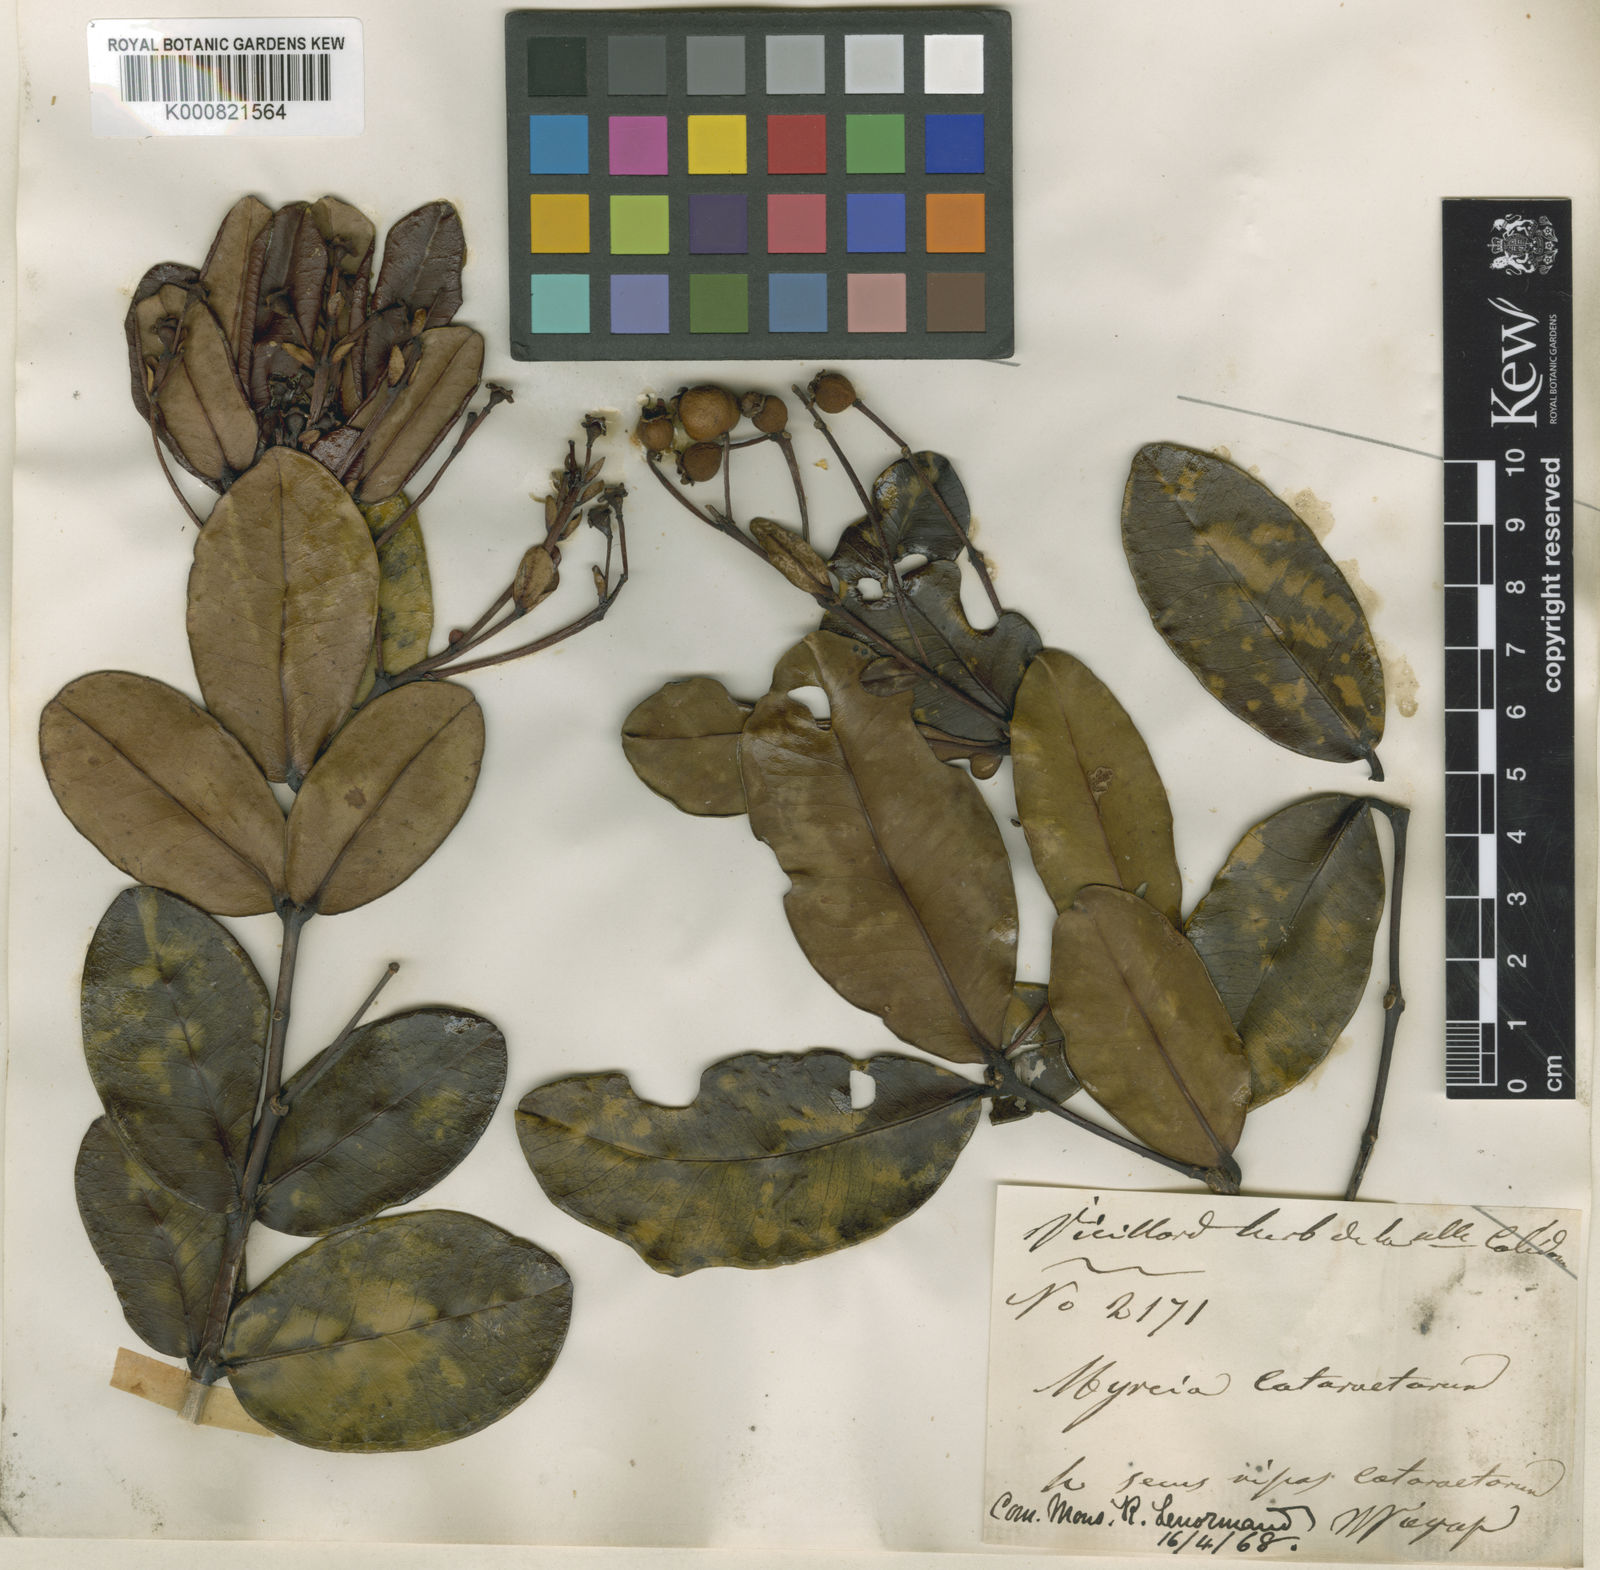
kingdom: Plantae
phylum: Tracheophyta
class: Magnoliopsida
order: Myrtales
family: Myrtaceae
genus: Gossia
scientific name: Gossia kuakuensis
